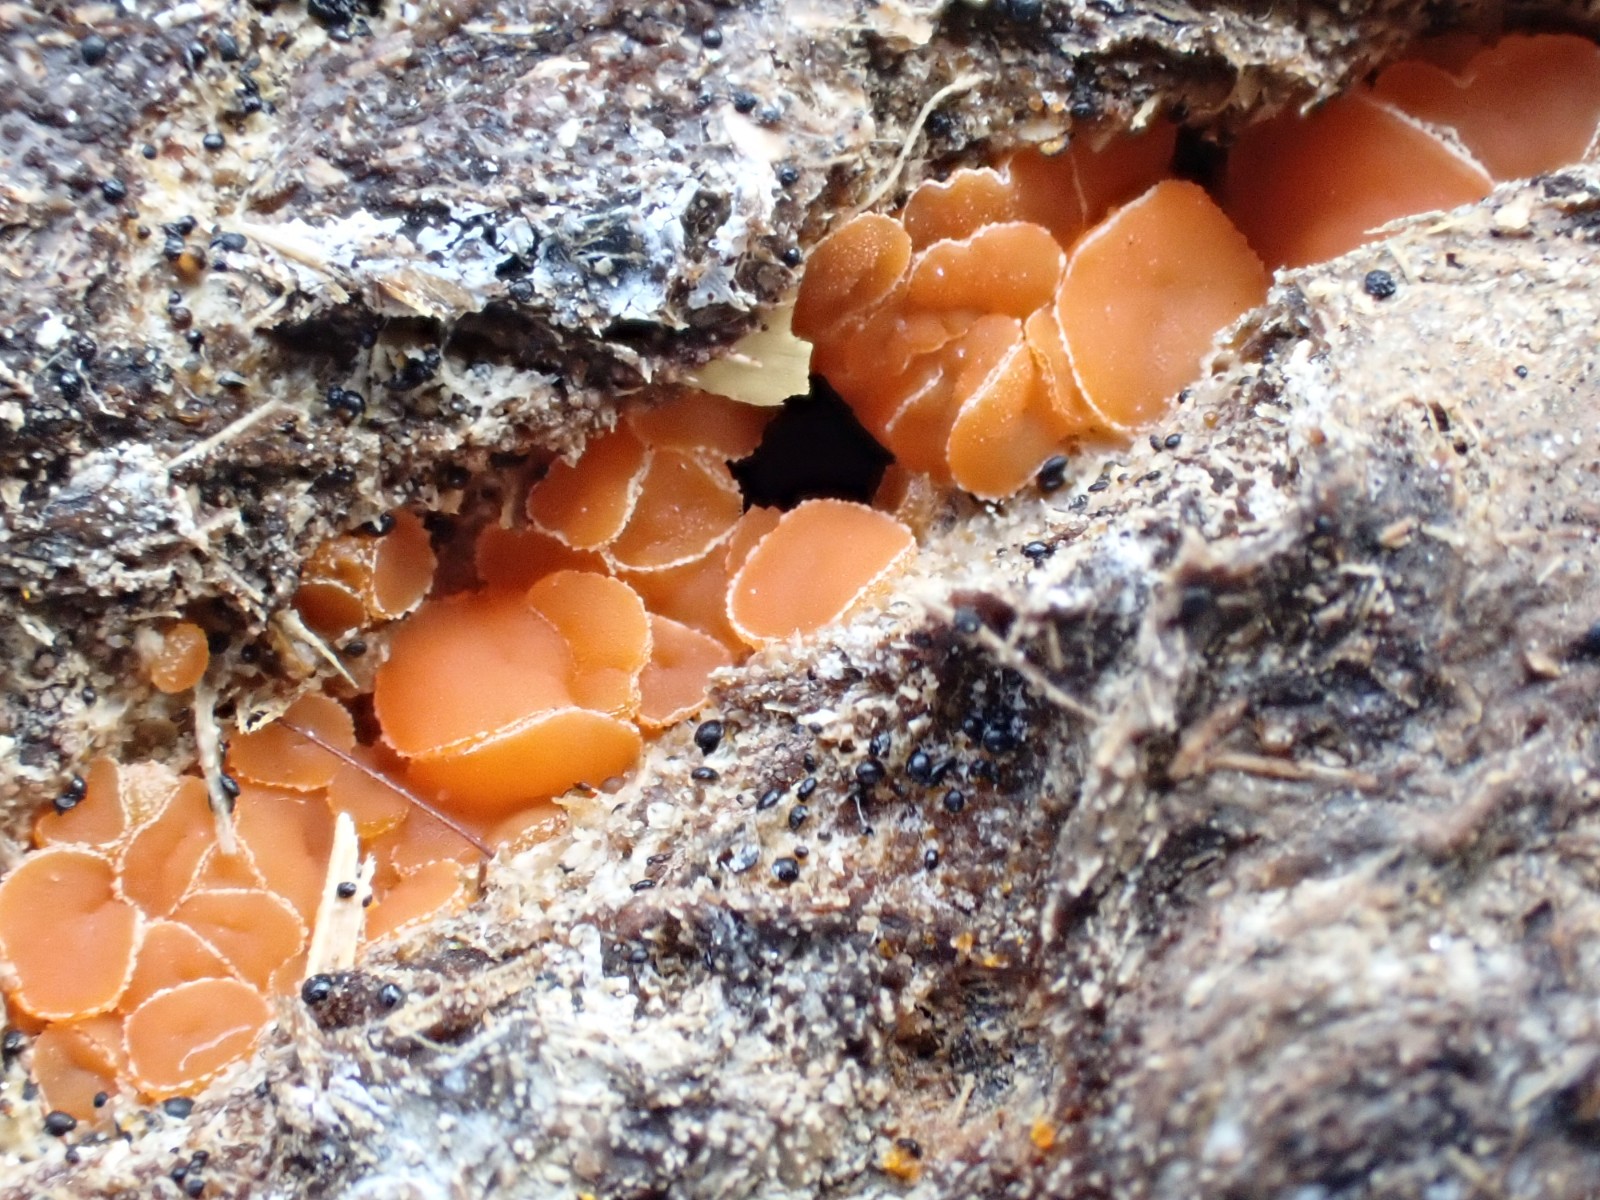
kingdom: Fungi
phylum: Ascomycota
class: Pezizomycetes
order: Pezizales
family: Pyronemataceae
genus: Cheilymenia
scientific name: Cheilymenia granulata
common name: møgbæger
